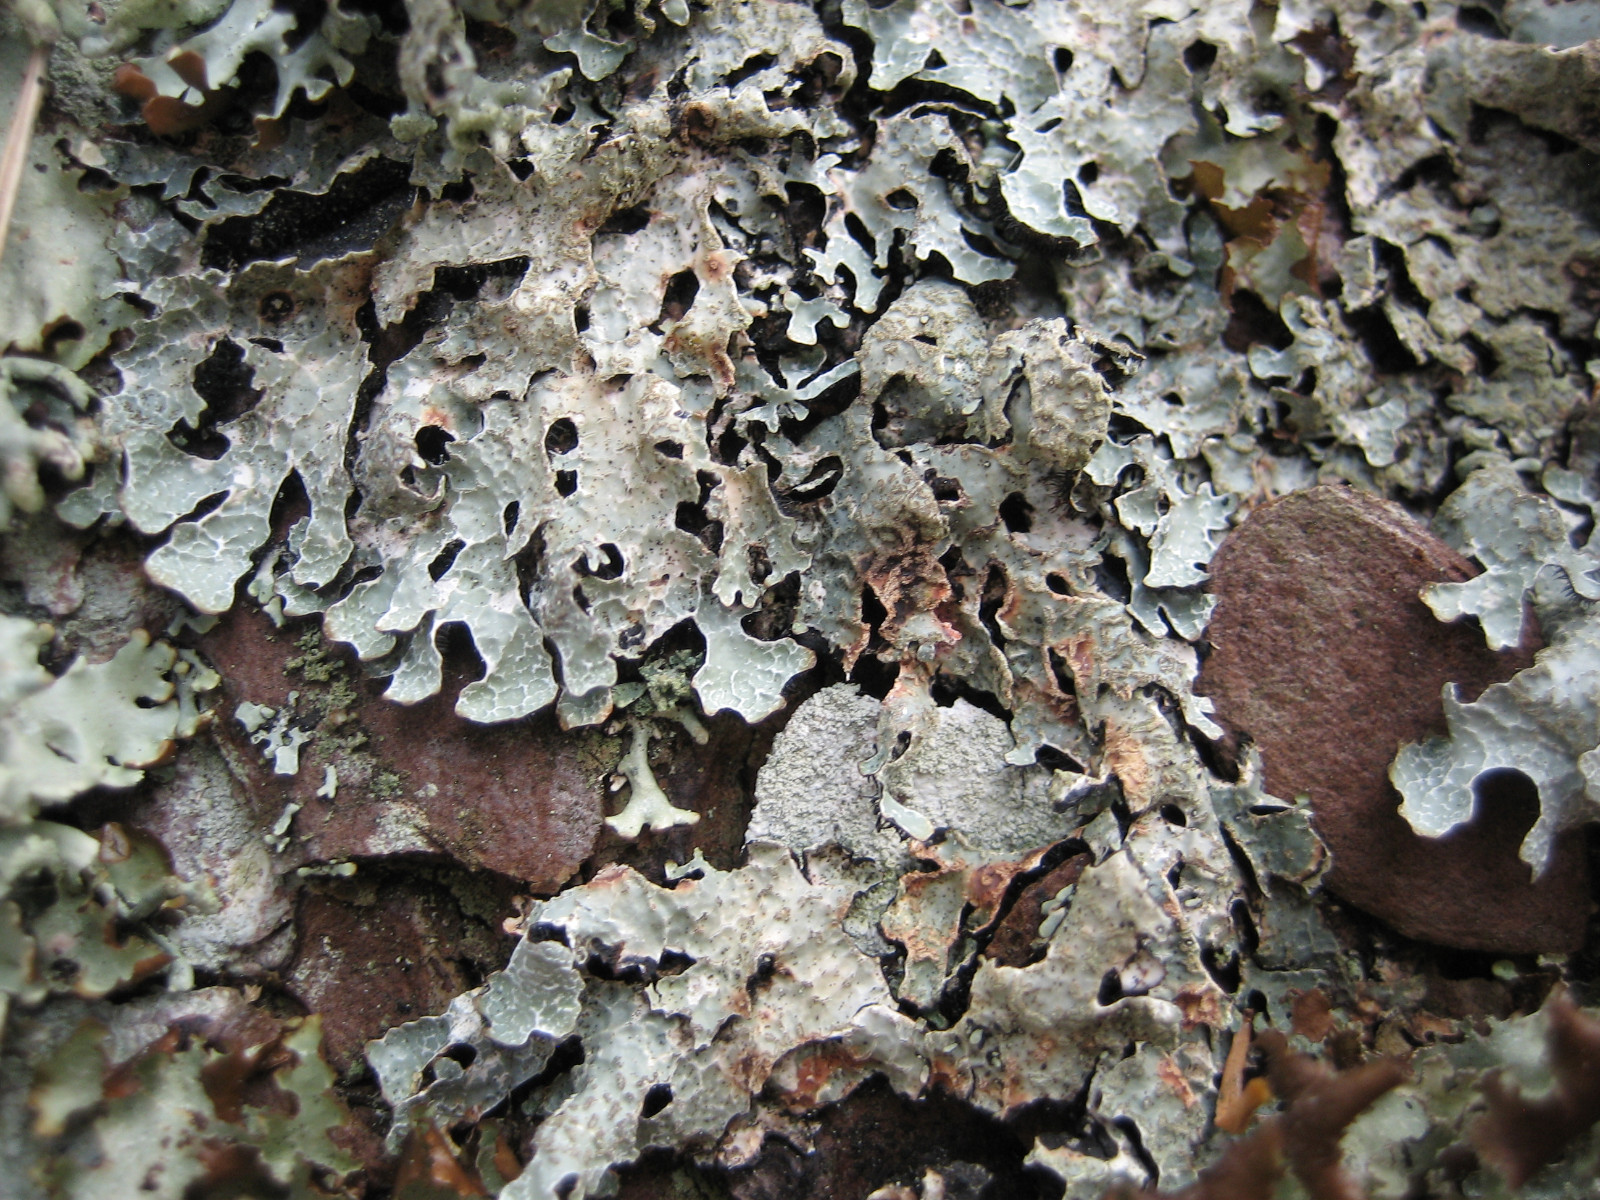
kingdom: Fungi
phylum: Ascomycota
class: Lecanoromycetes
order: Lecanorales
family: Parmeliaceae
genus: Parmelia
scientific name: Parmelia sulcata
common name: rynket skållav
